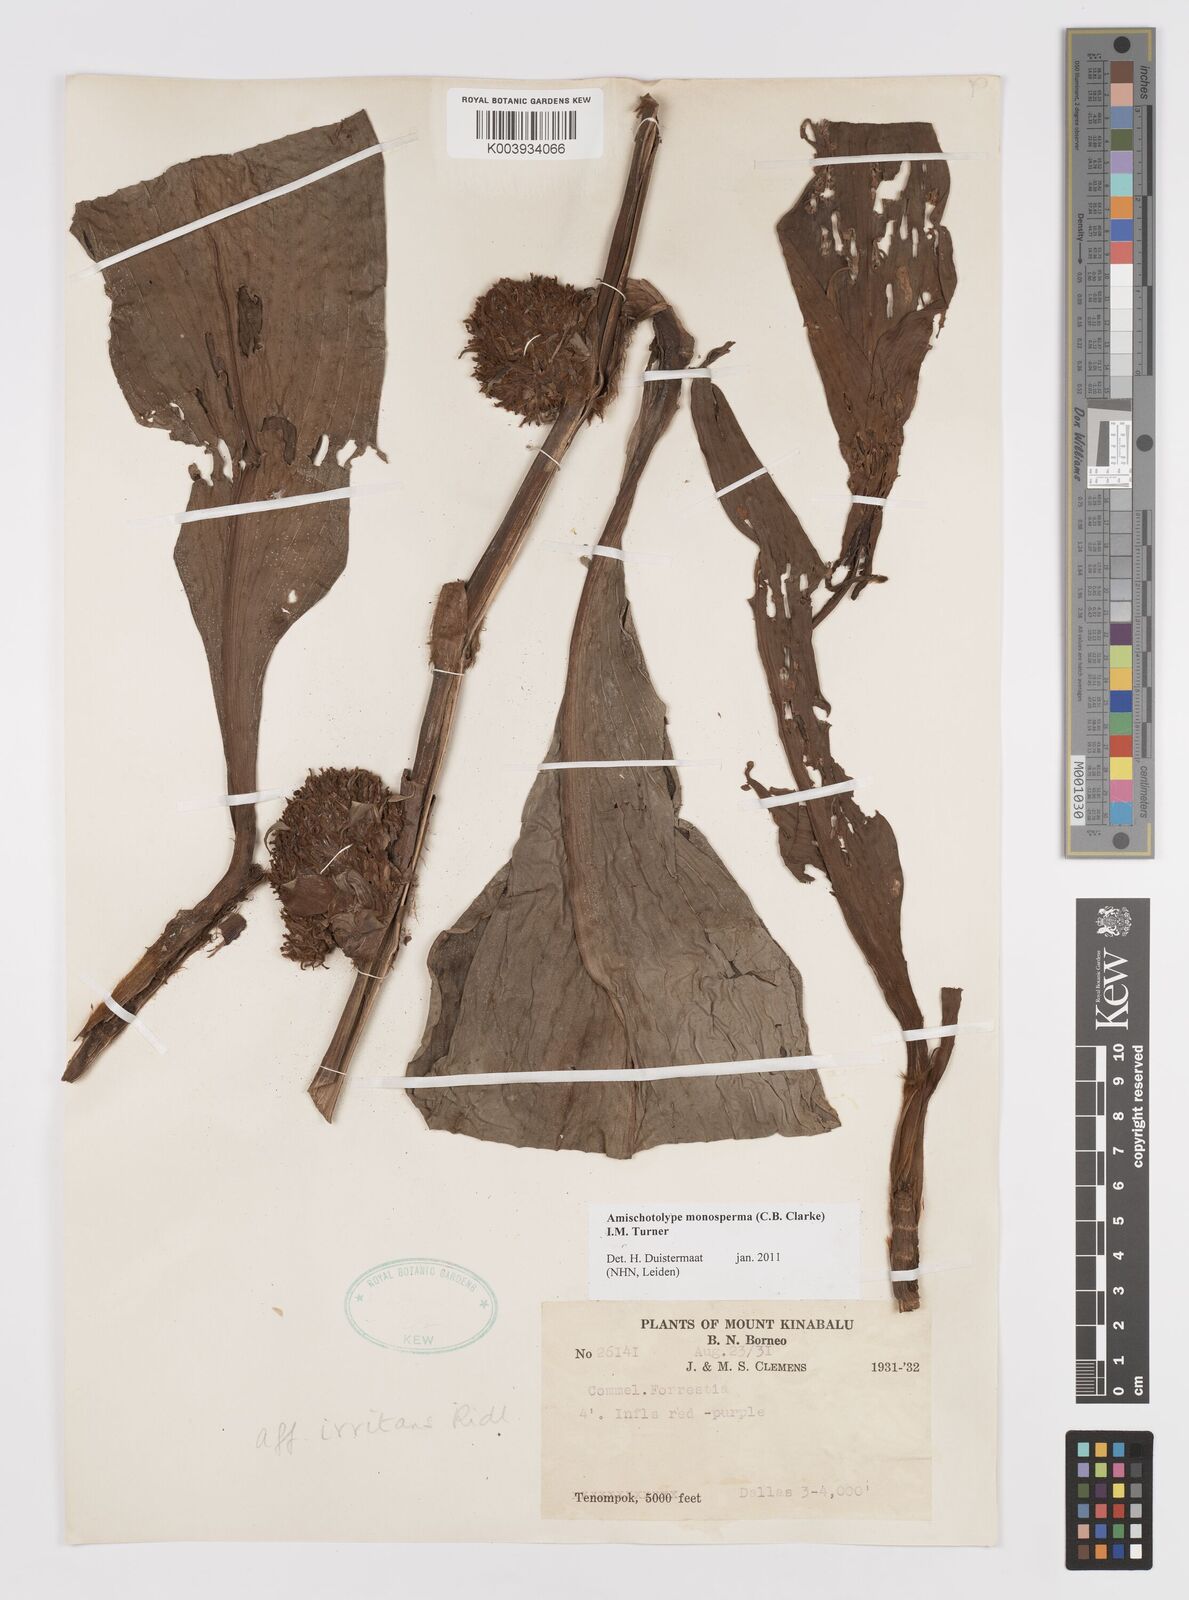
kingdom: Plantae
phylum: Tracheophyta
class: Liliopsida
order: Commelinales
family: Commelinaceae
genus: Amischotolype
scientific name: Amischotolype monosperma
